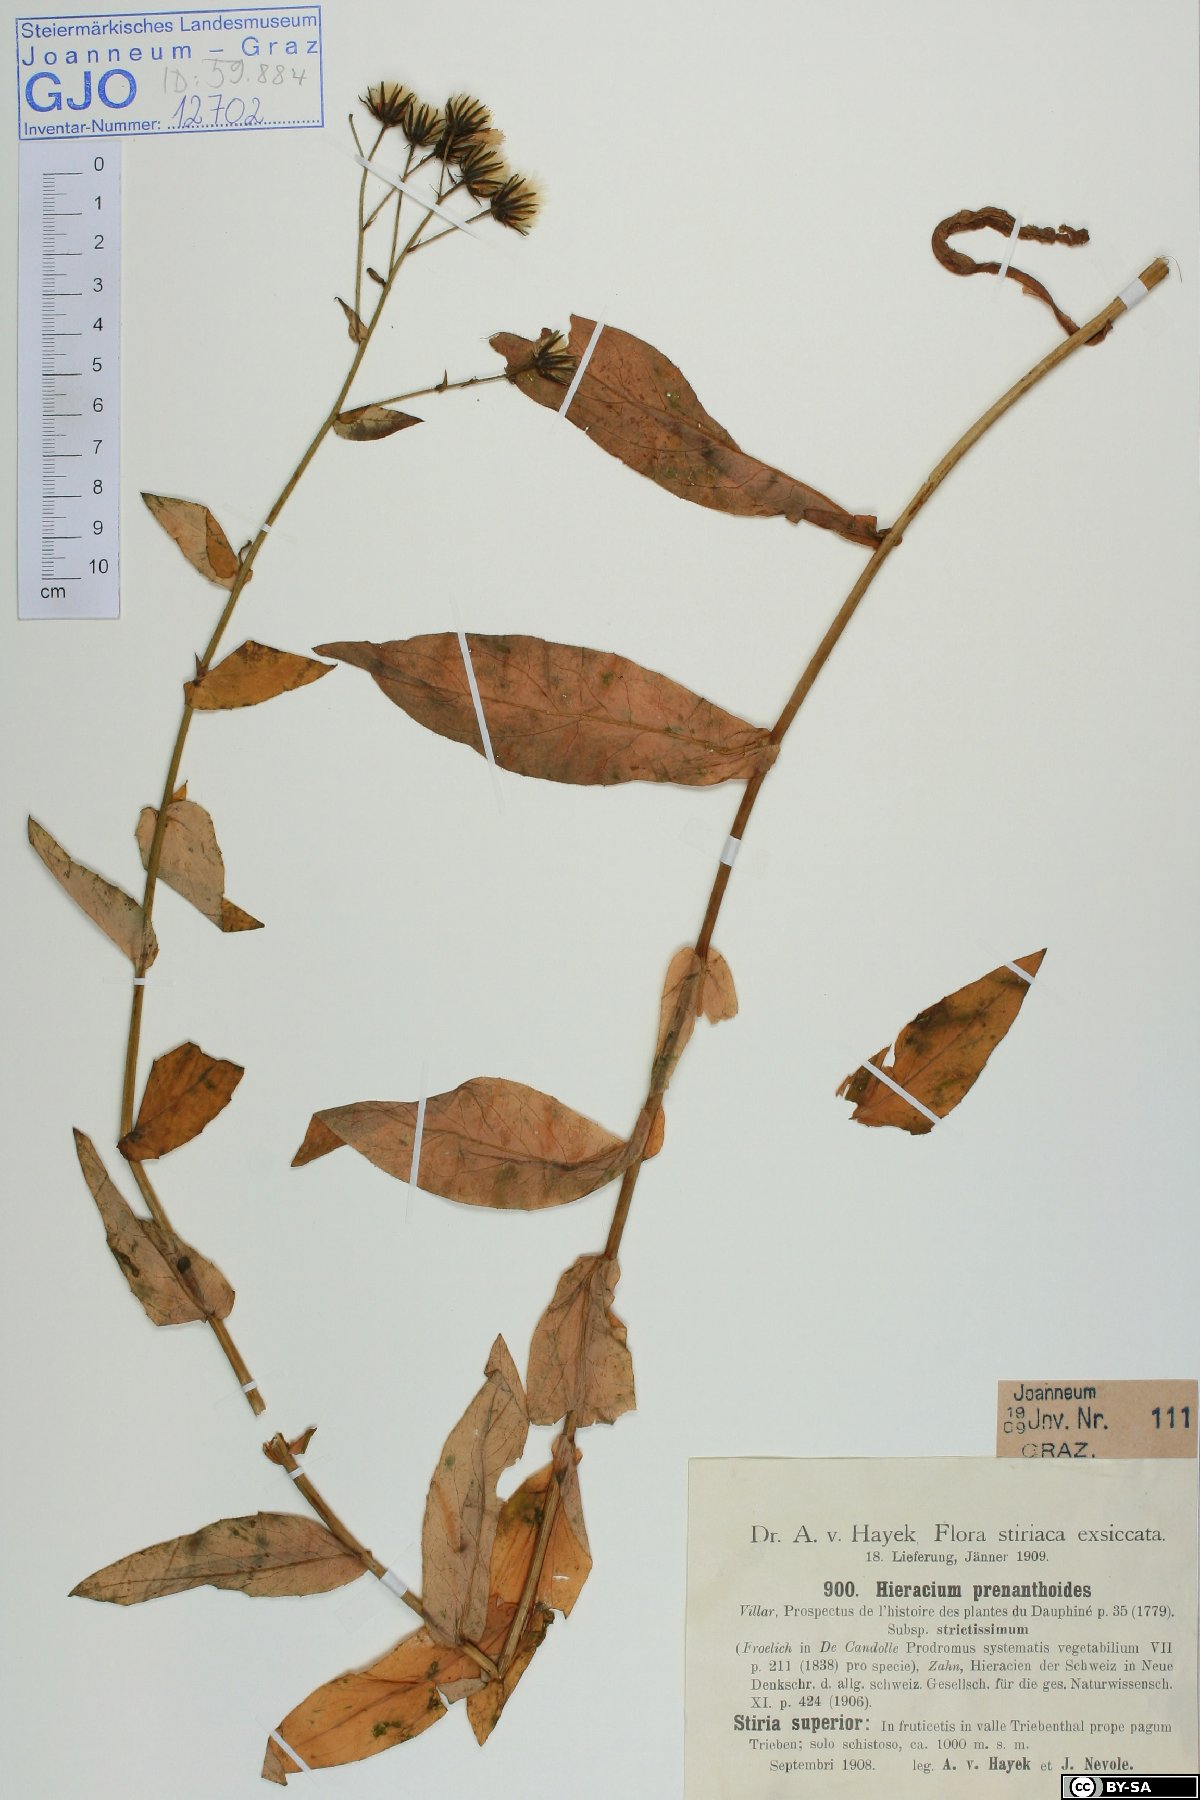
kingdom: Plantae
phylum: Tracheophyta
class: Magnoliopsida
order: Asterales
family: Asteraceae
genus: Hieracium
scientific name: Hieracium prenanthoides
